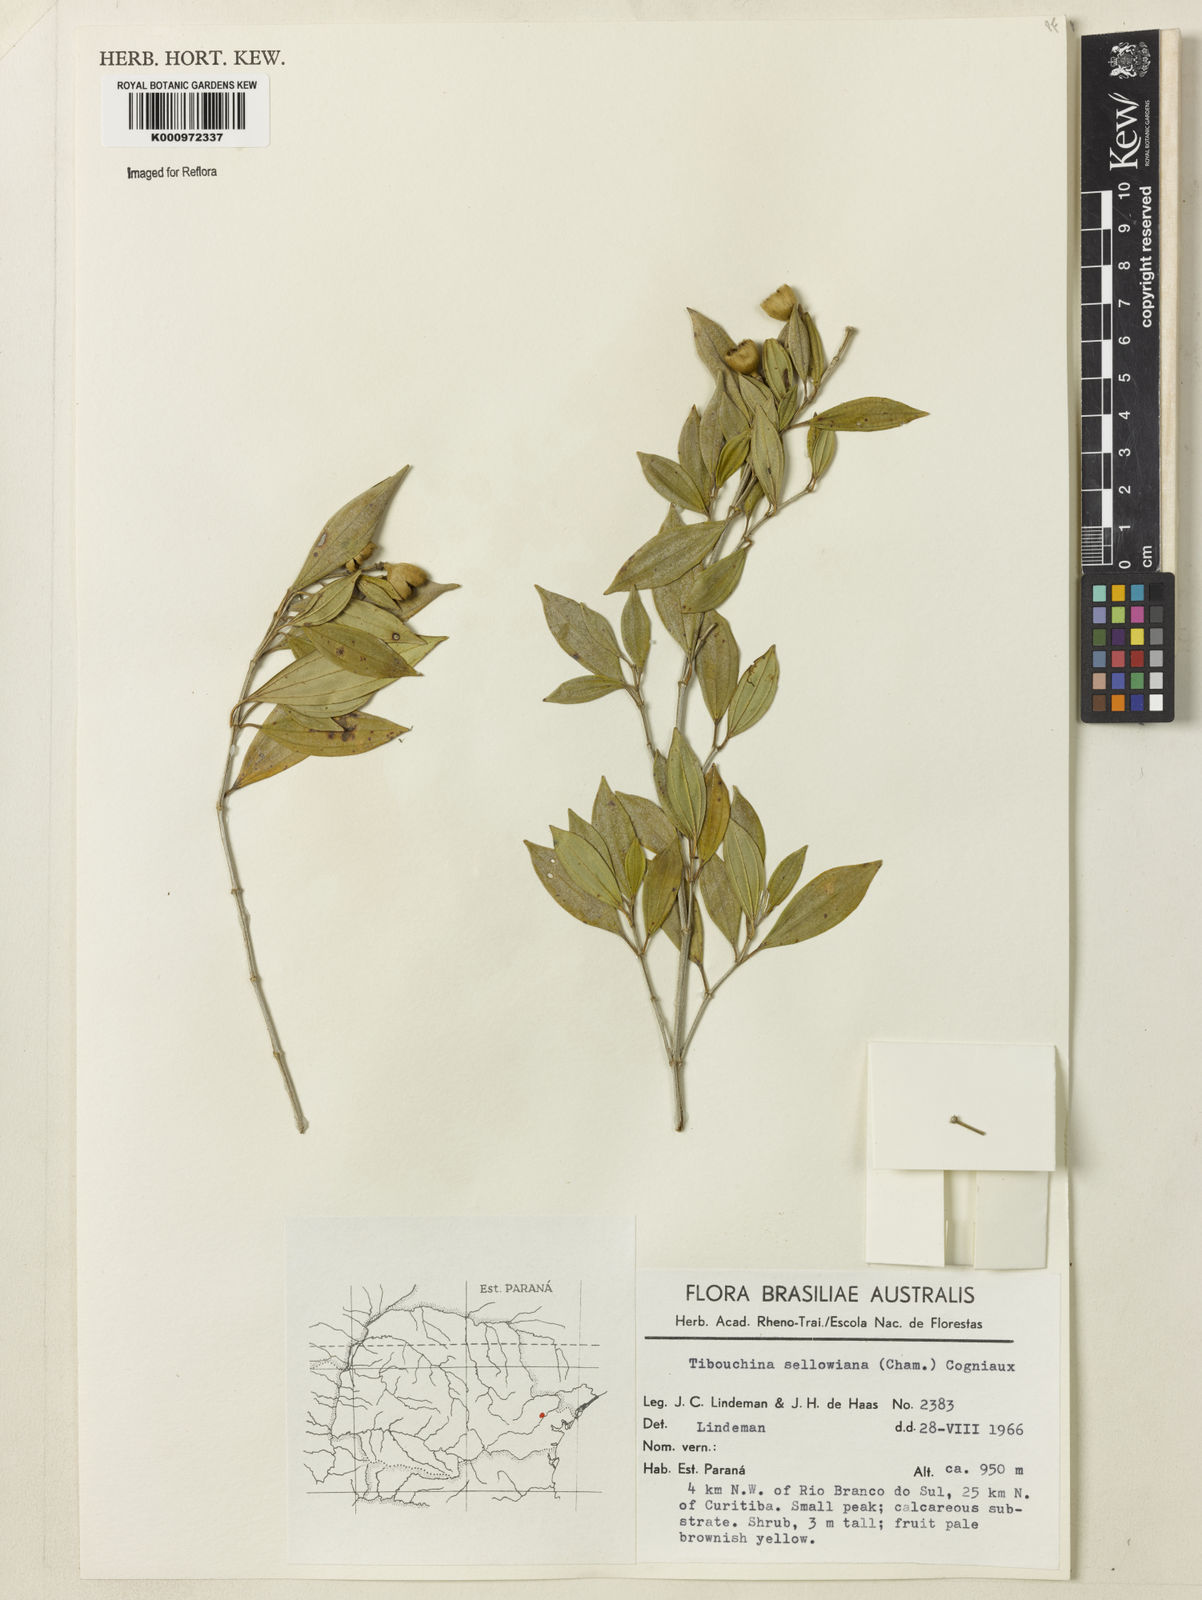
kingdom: Plantae
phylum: Tracheophyta
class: Magnoliopsida
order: Myrtales
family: Melastomataceae
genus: Pleroma
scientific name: Pleroma sellowianum
